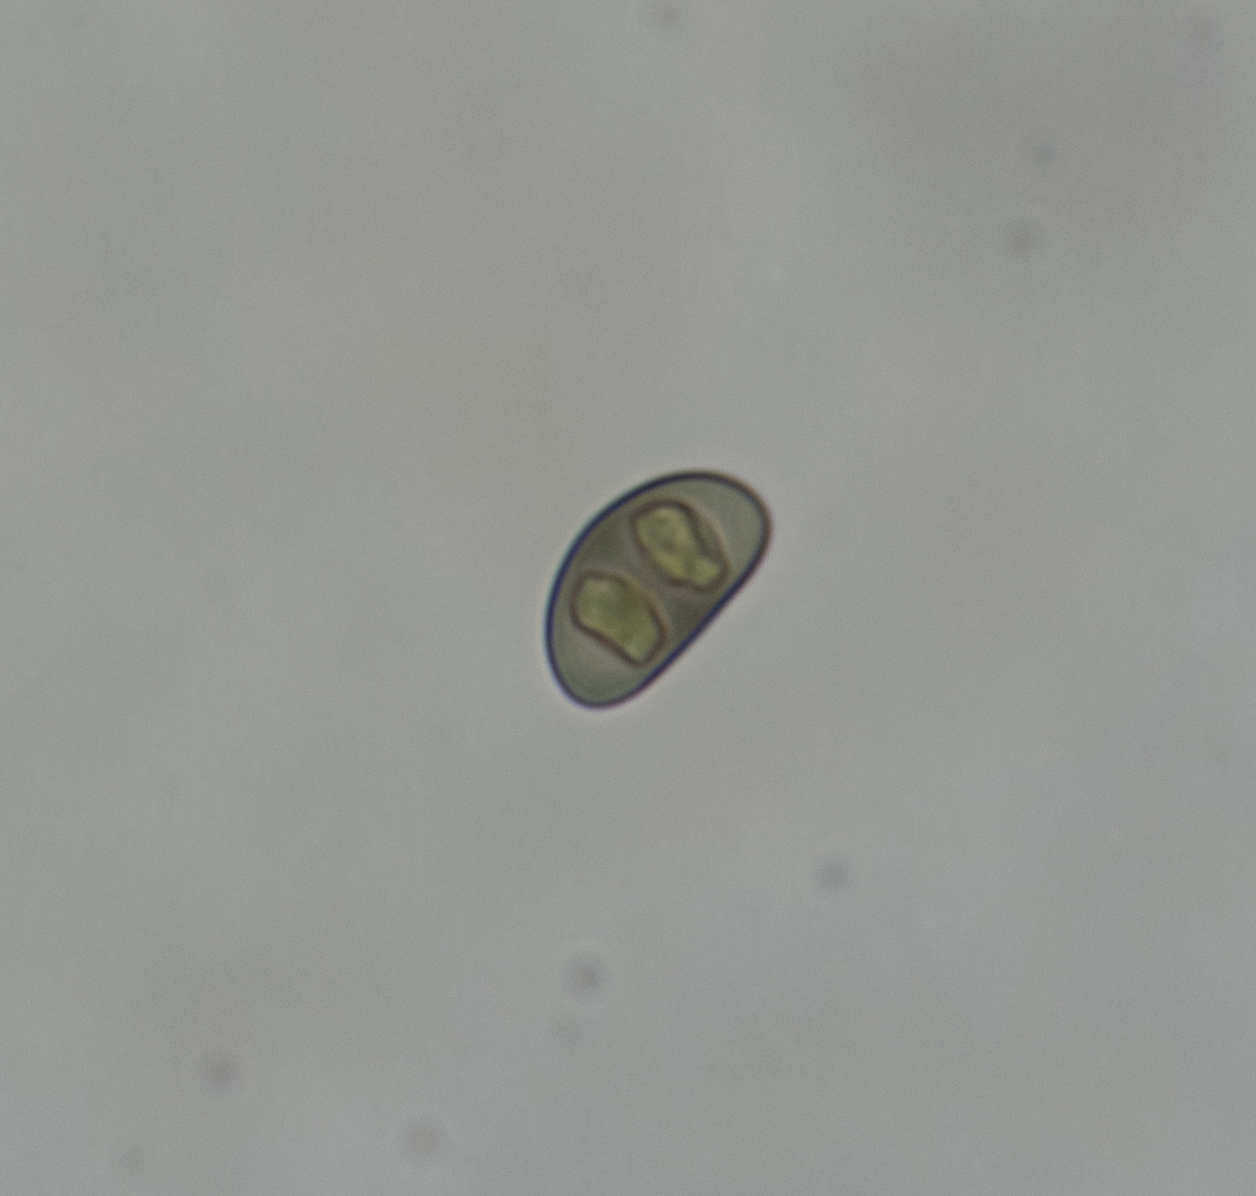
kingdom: Fungi
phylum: Ascomycota
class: Lecanoromycetes
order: Caliciales
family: Physciaceae
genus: Rinodina
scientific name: Rinodina oleae
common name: kyst-knaplav
